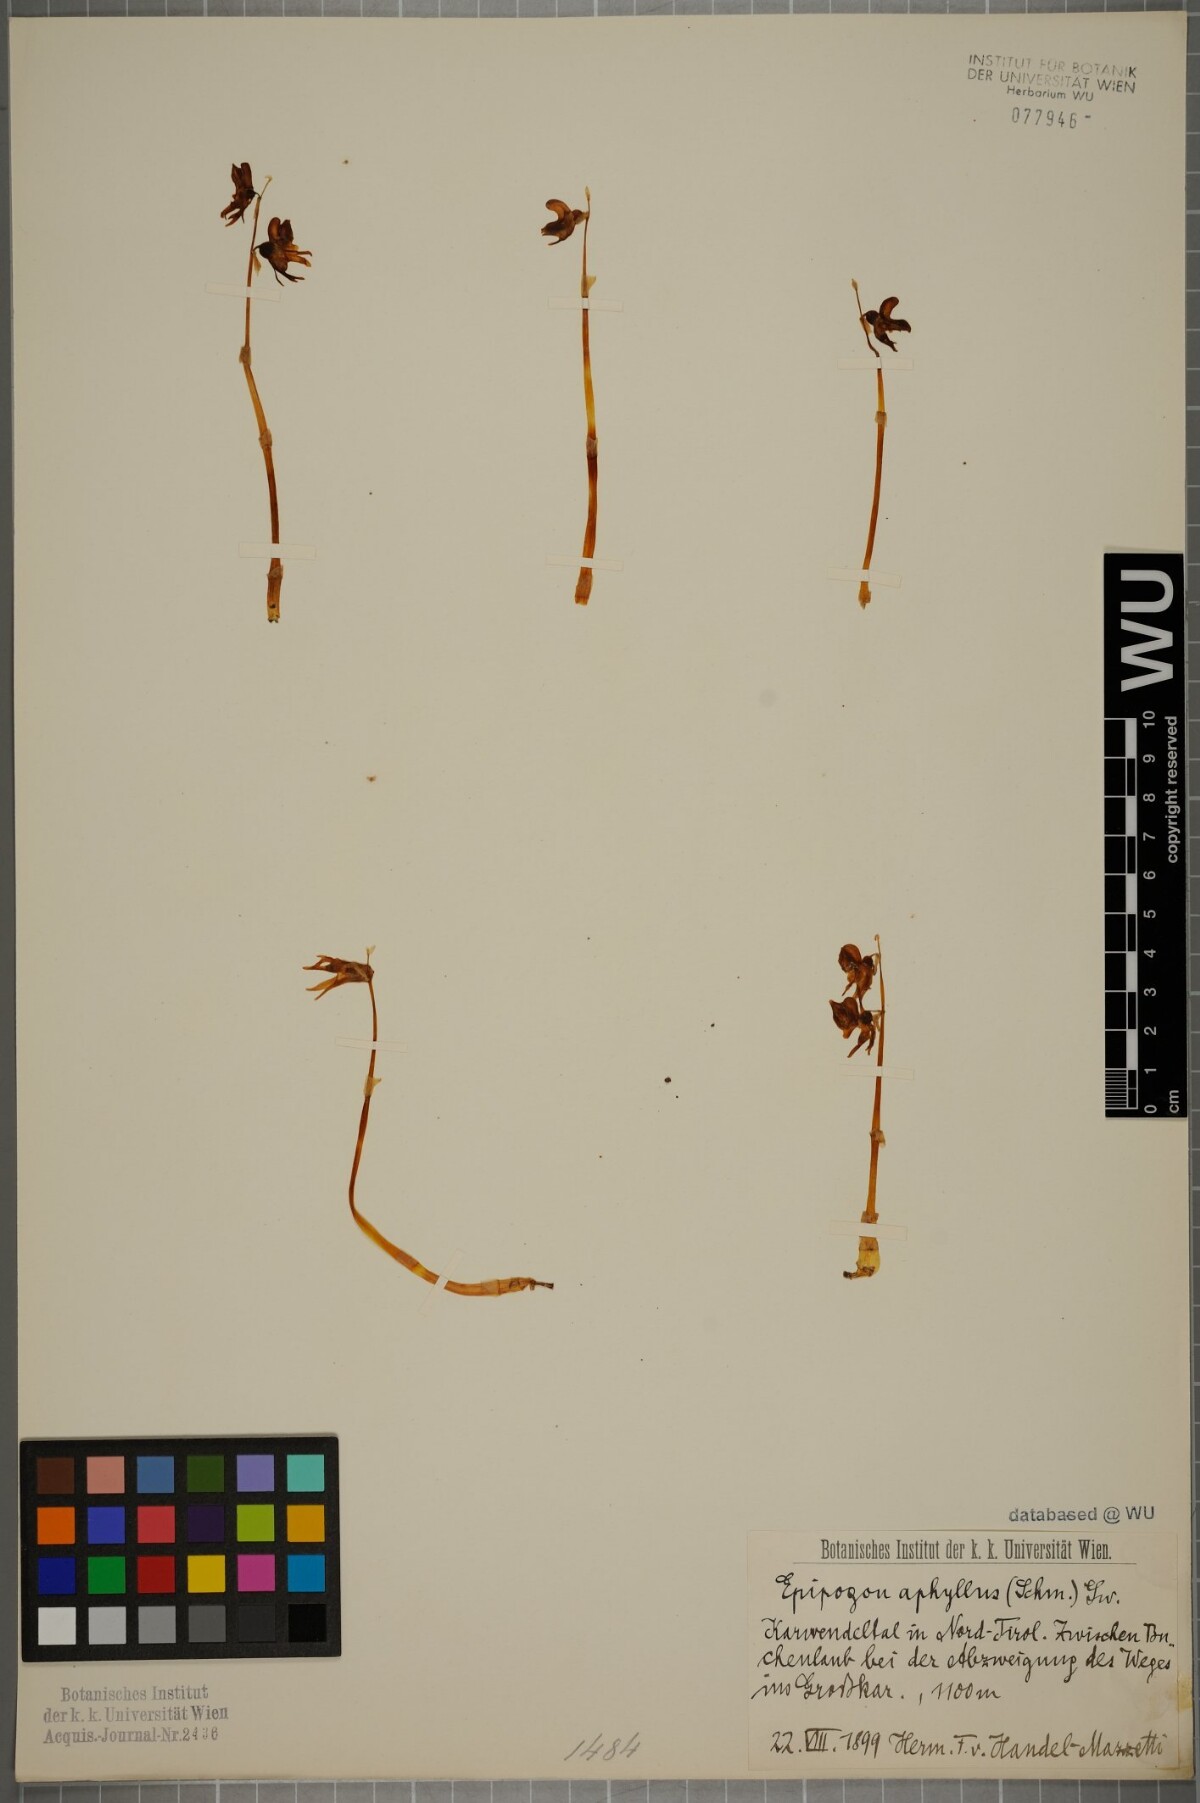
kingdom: Plantae
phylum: Tracheophyta
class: Liliopsida
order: Asparagales
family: Orchidaceae
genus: Epipogium
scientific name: Epipogium aphyllum
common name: Ghost orchid
